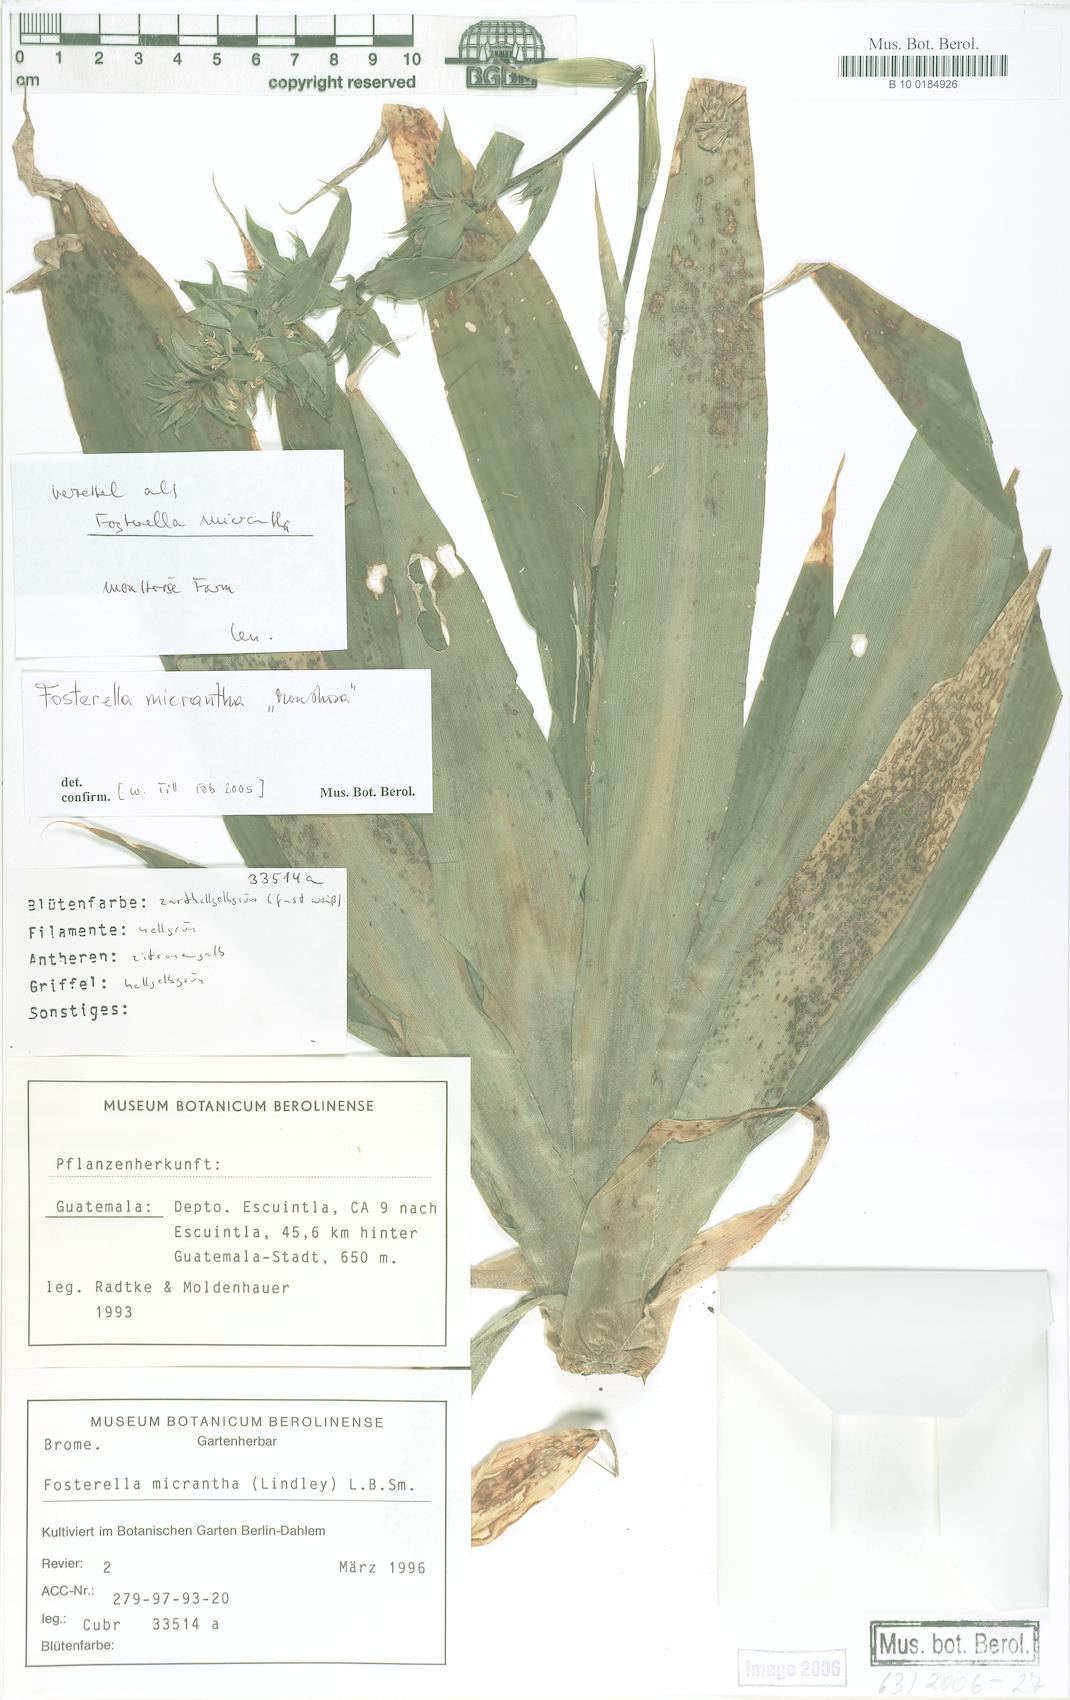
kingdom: Plantae
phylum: Tracheophyta
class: Liliopsida
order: Poales
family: Bromeliaceae
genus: Fosterella
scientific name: Fosterella micrantha
